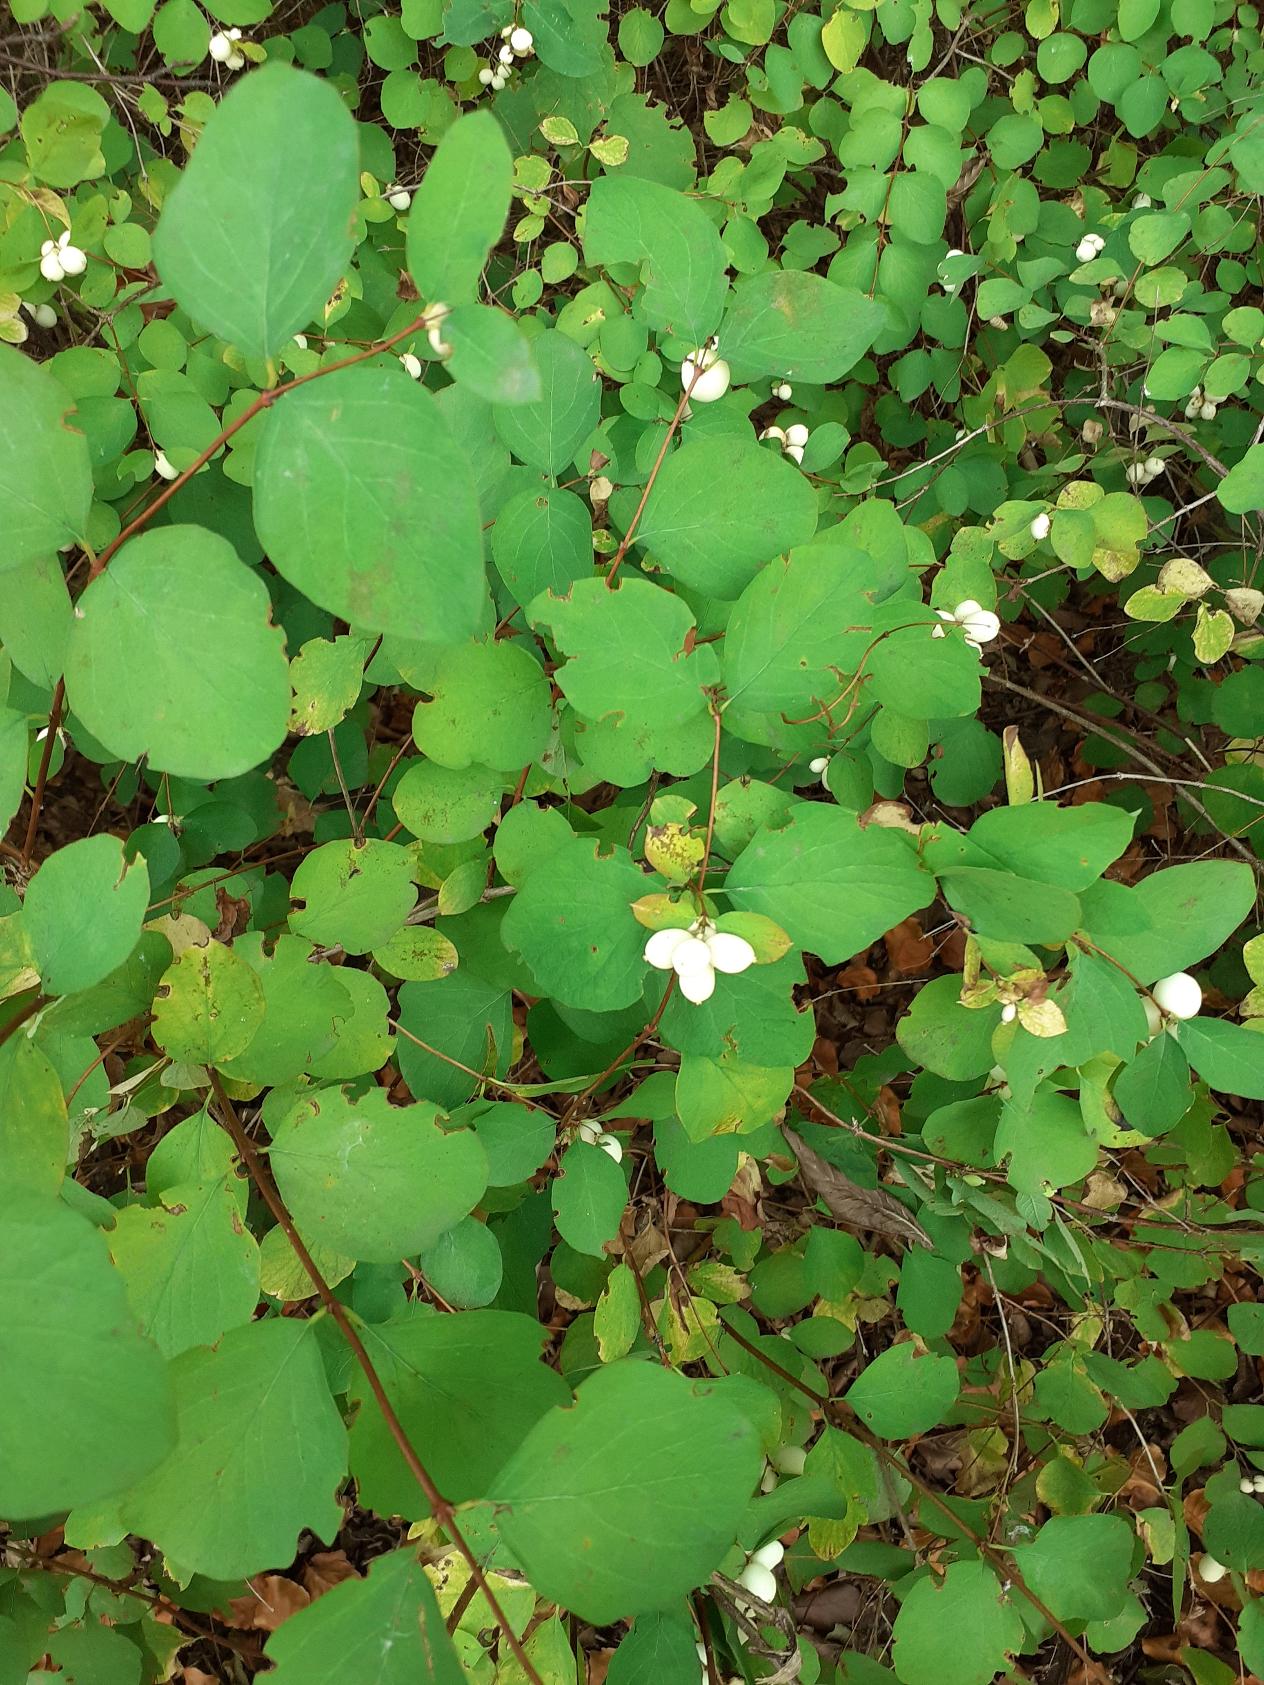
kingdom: Plantae
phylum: Tracheophyta
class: Magnoliopsida
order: Dipsacales
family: Caprifoliaceae
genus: Symphoricarpos
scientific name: Symphoricarpos albus
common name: Almindelig snebær
